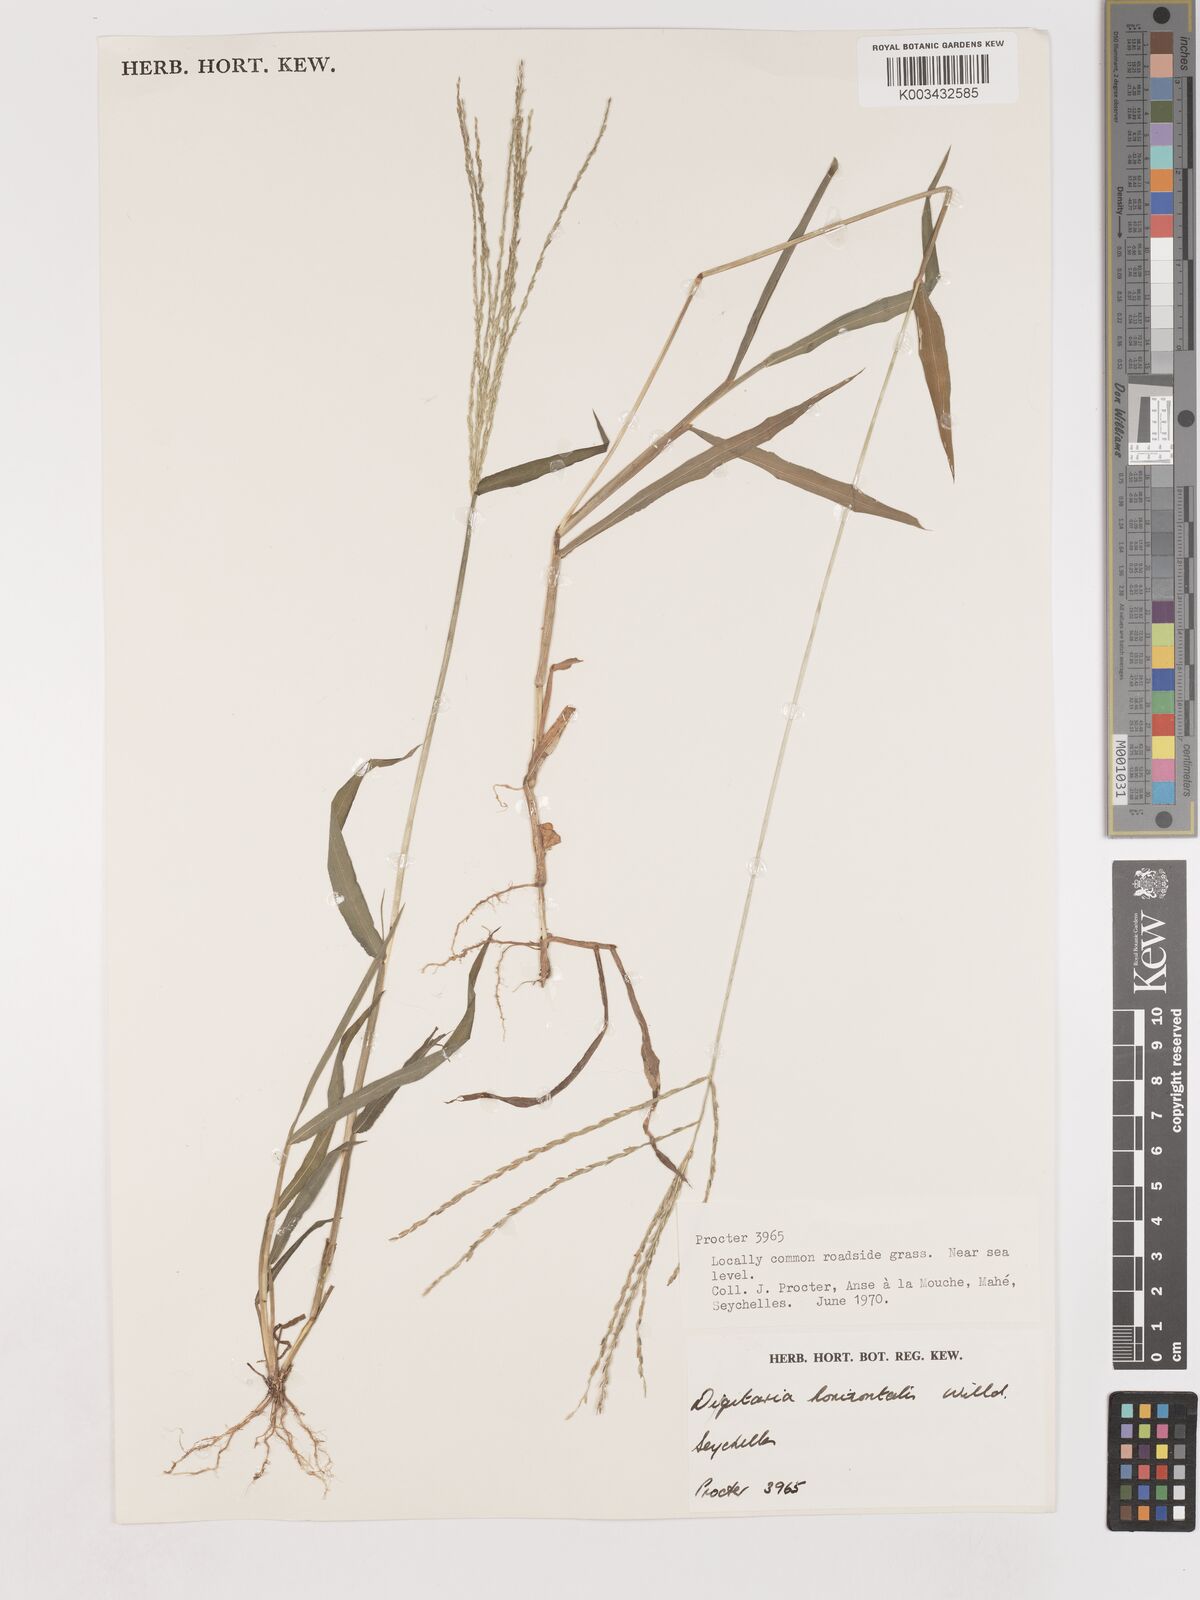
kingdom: Plantae
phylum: Tracheophyta
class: Liliopsida
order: Poales
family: Poaceae
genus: Digitaria
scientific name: Digitaria setigera
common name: East indian crabgrass
